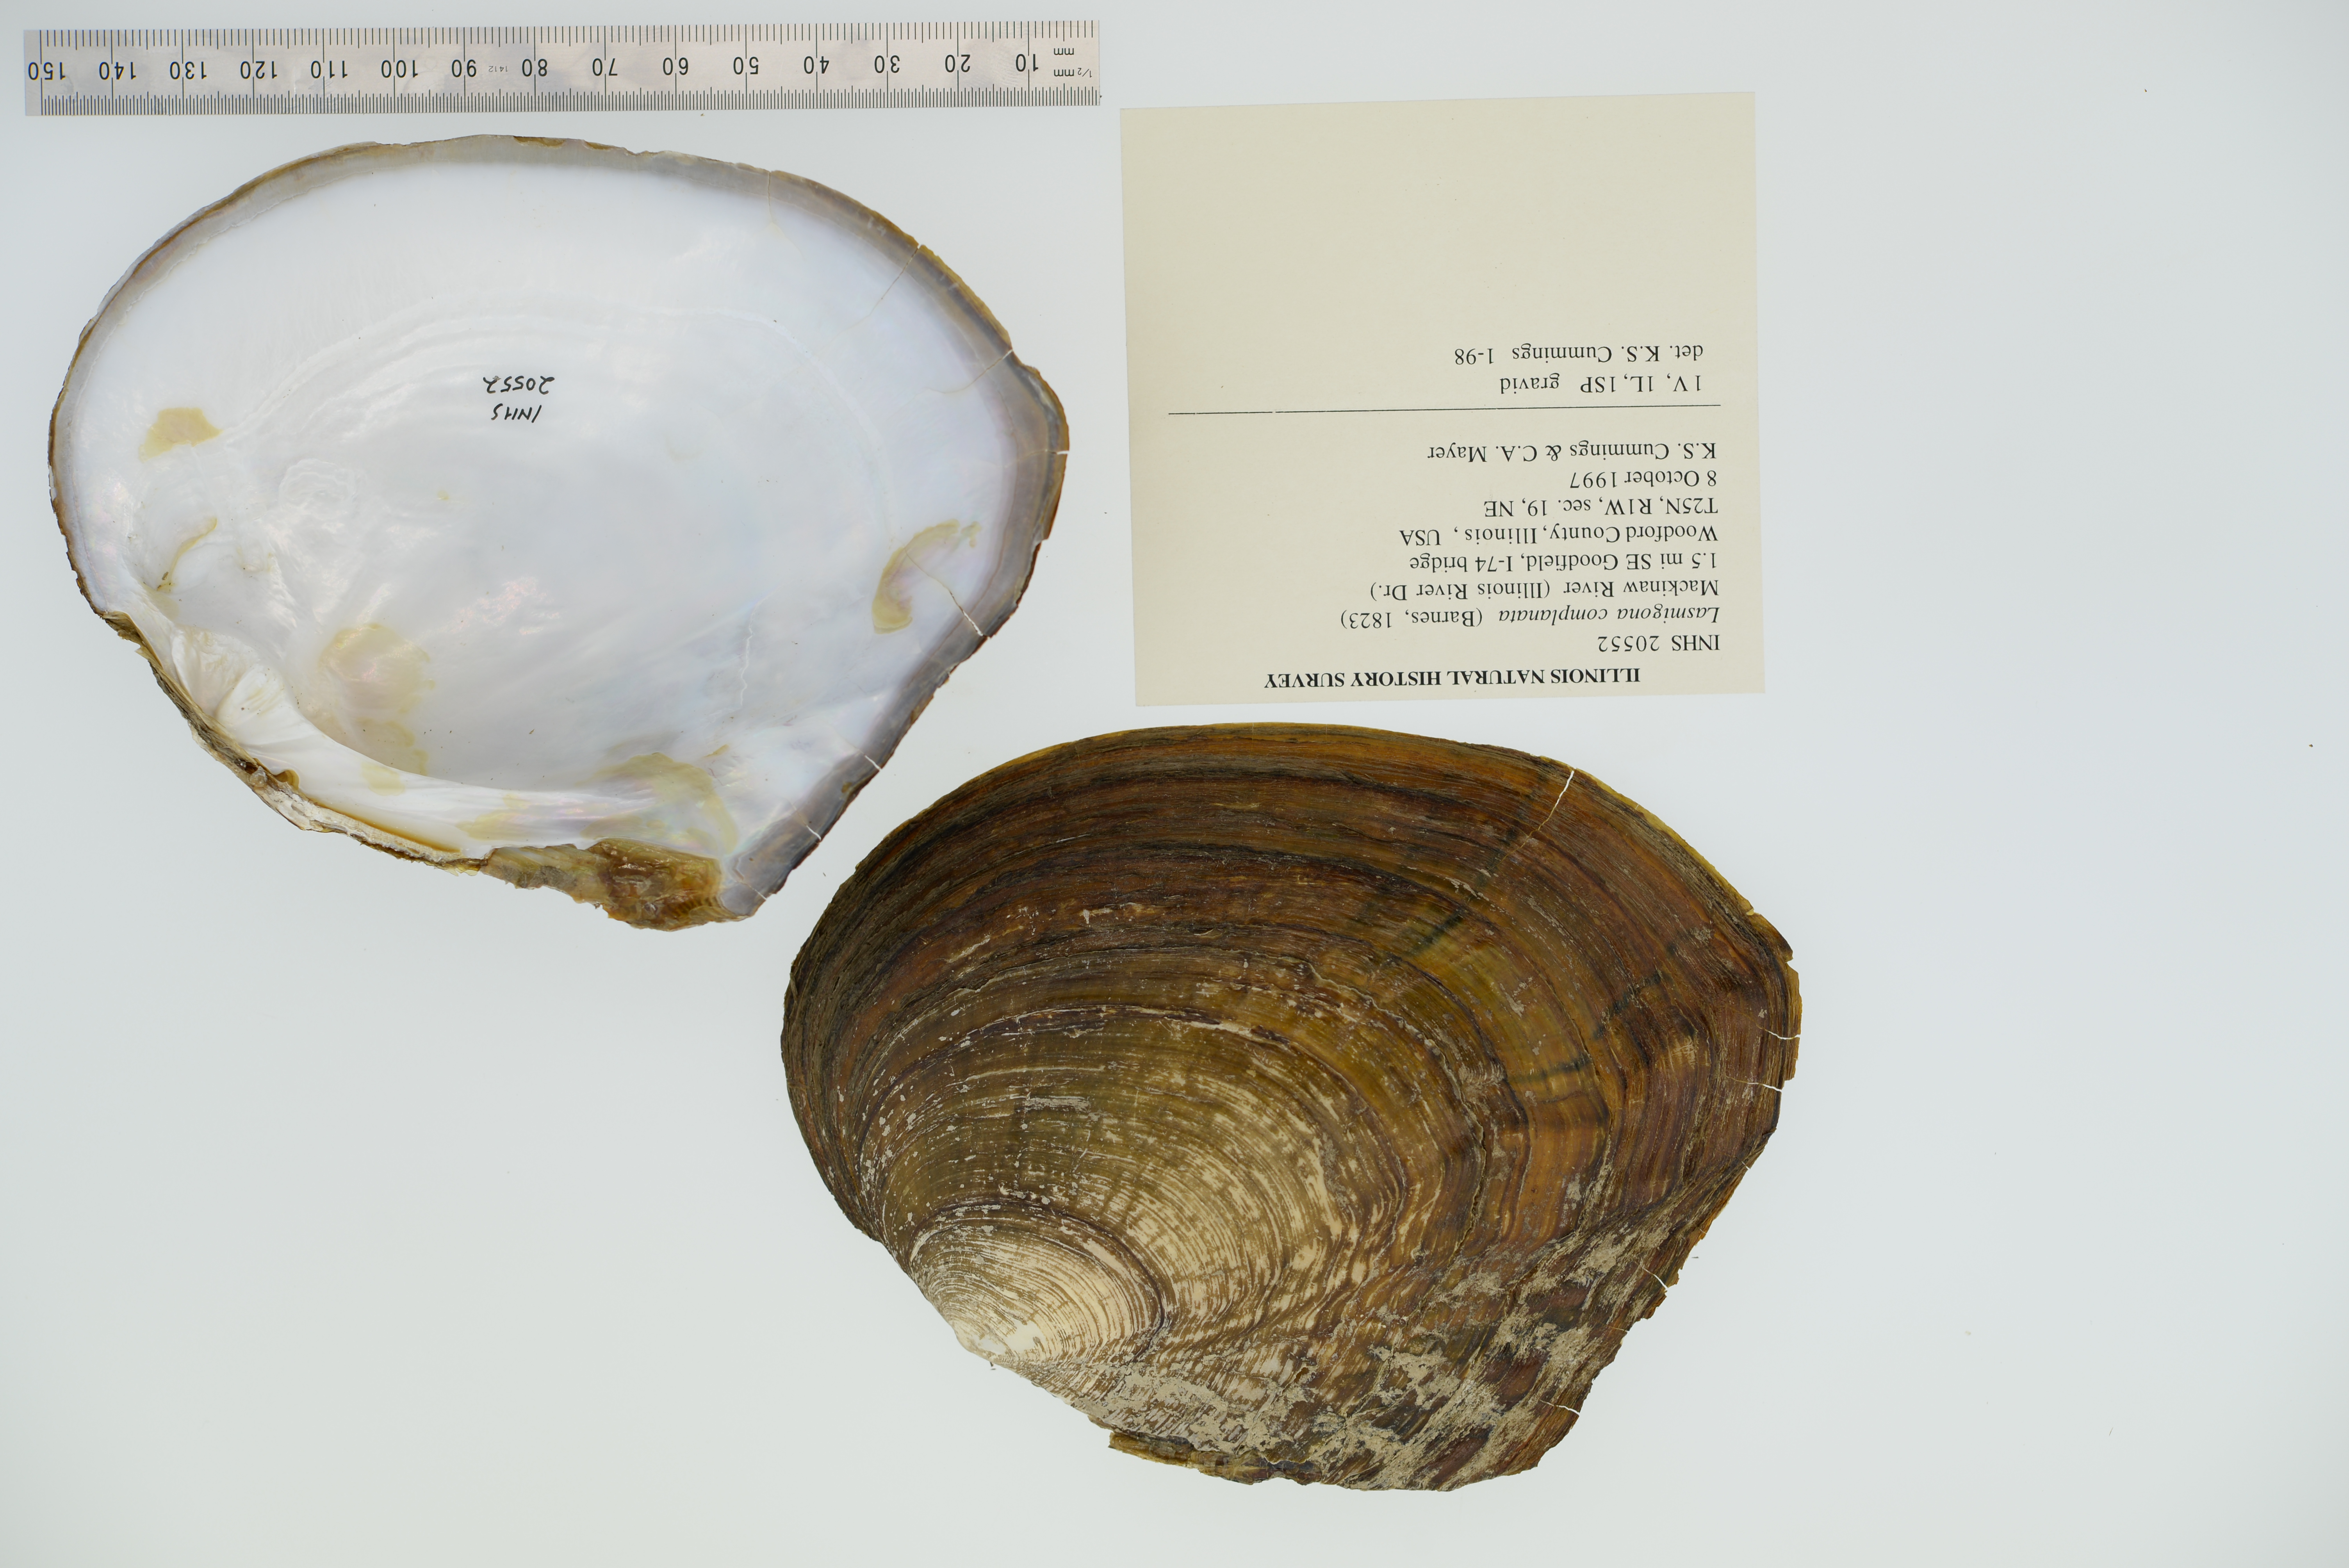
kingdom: Animalia
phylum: Mollusca
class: Bivalvia
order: Unionida
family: Unionidae
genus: Lasmigona
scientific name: Lasmigona complanata
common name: White heelsplitter
